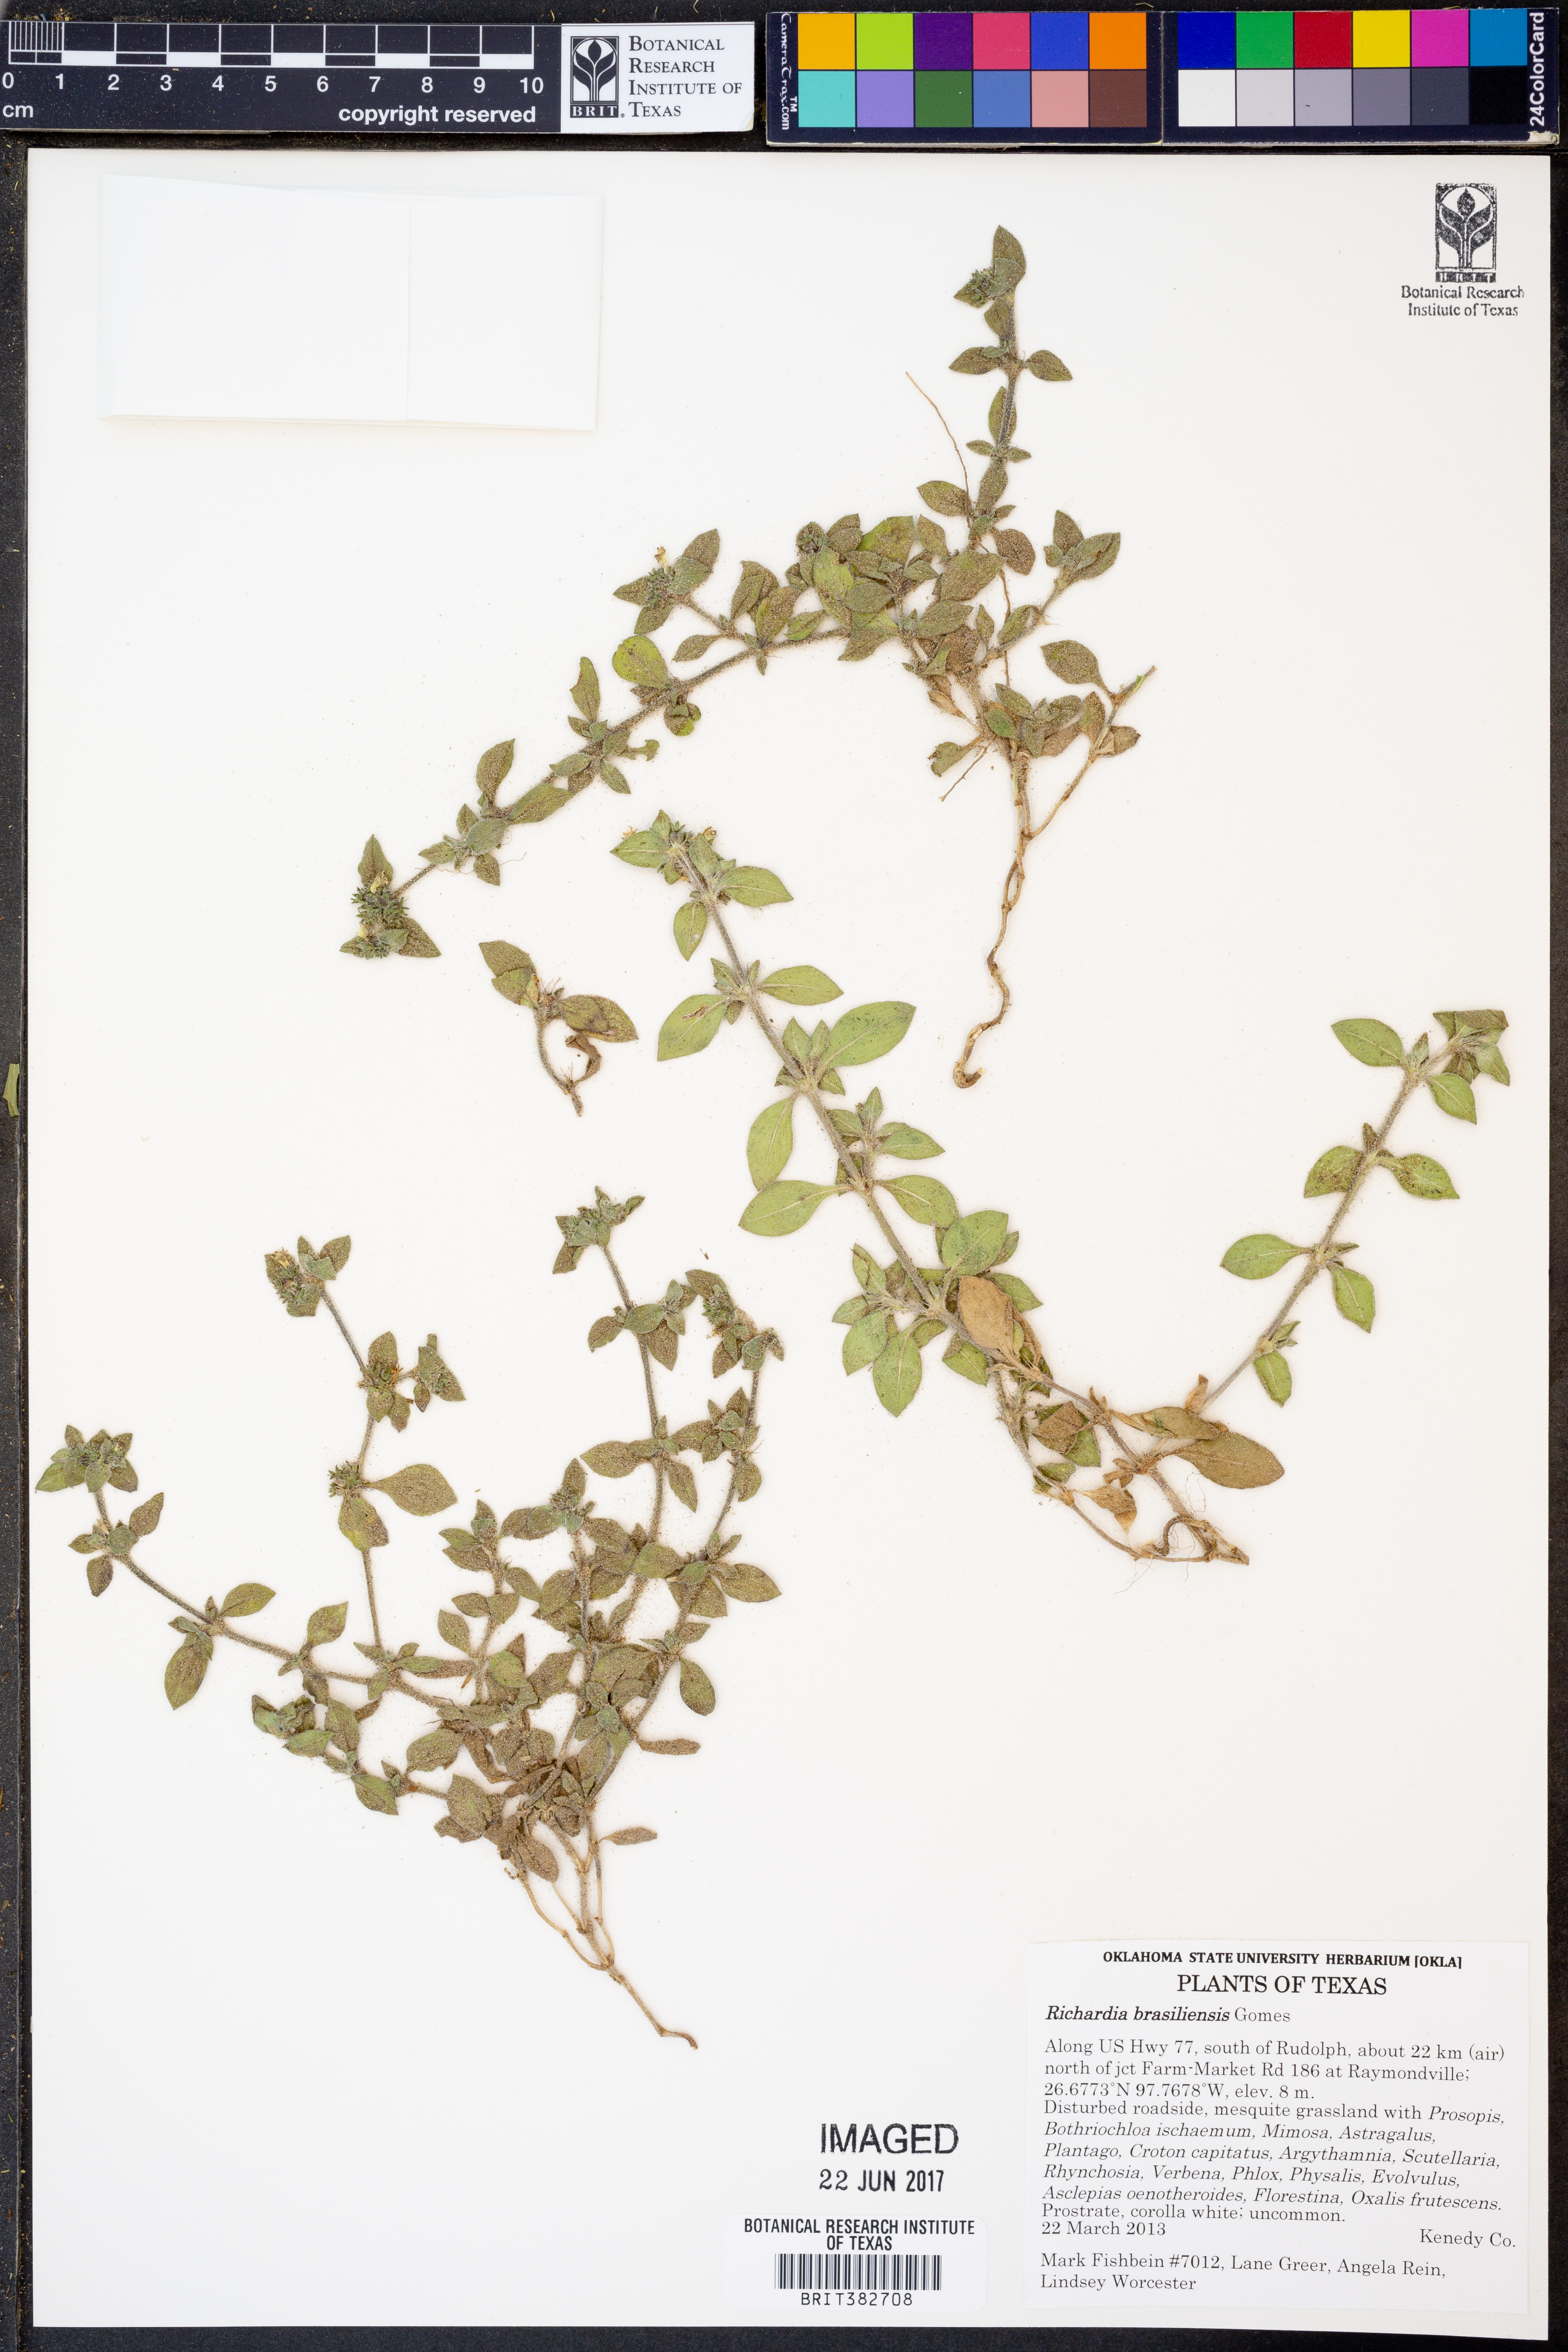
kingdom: Plantae
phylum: Tracheophyta
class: Magnoliopsida
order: Gentianales
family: Rubiaceae
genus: Richardia
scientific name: Richardia brasiliensis
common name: Tropical mexican clover
